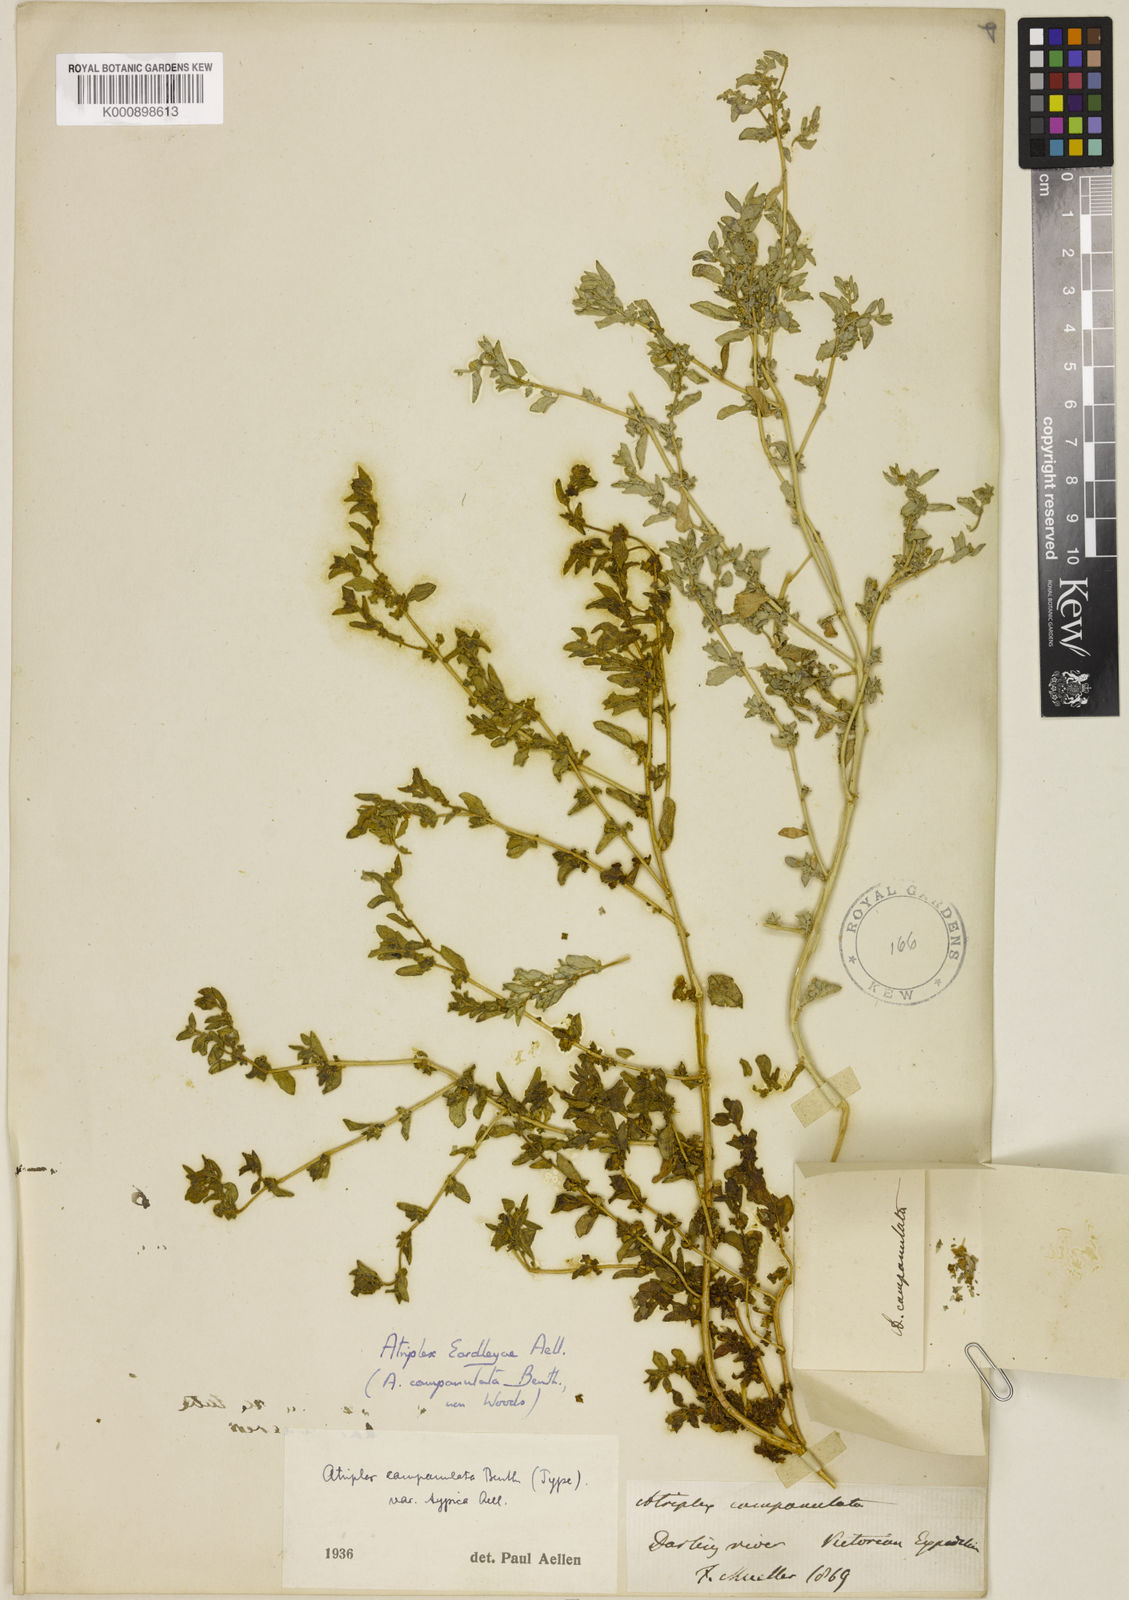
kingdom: Plantae
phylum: Tracheophyta
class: Magnoliopsida
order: Caryophyllales
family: Amaranthaceae
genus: Atriplex
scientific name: Atriplex eardleyae
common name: Small saltbush
